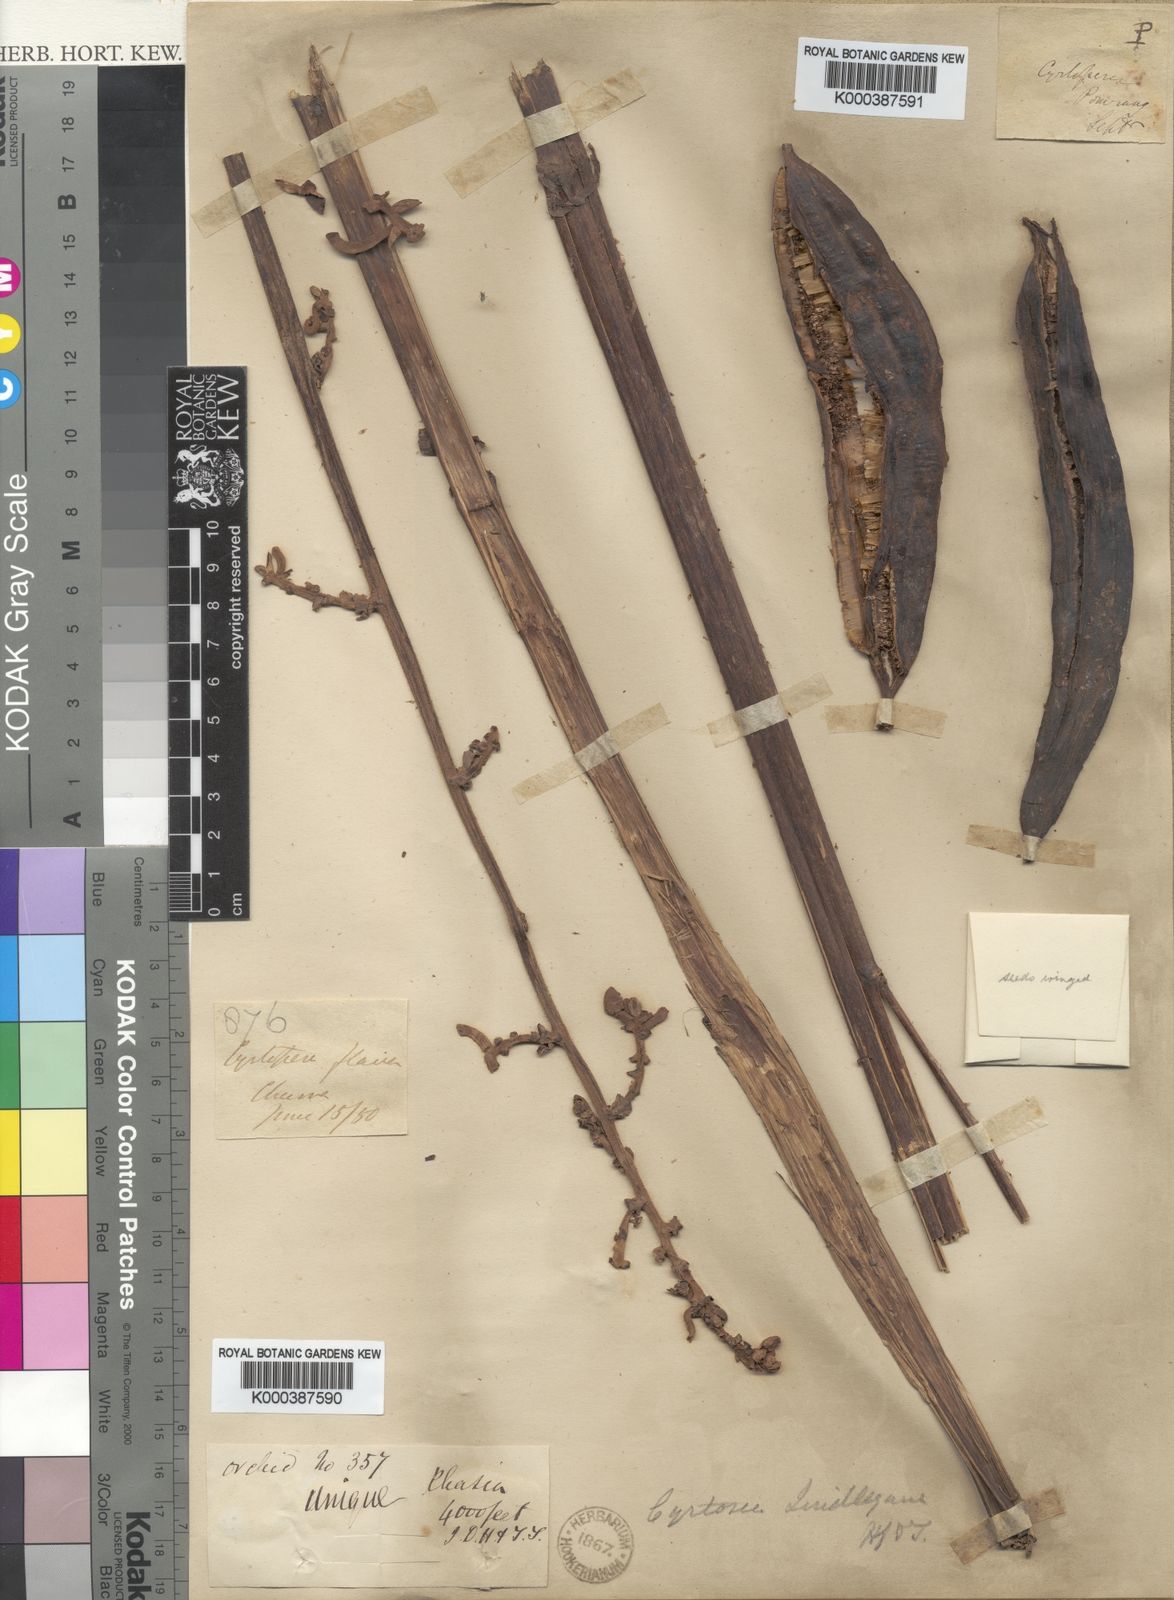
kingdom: Plantae
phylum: Tracheophyta
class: Liliopsida
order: Asparagales
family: Orchidaceae
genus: Cyrtosia
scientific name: Cyrtosia lindleyana
